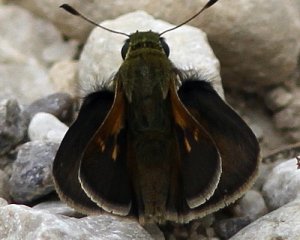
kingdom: Animalia
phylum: Arthropoda
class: Insecta
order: Lepidoptera
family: Hesperiidae
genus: Polites
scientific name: Polites egeremet
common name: Northern Broken-Dash
